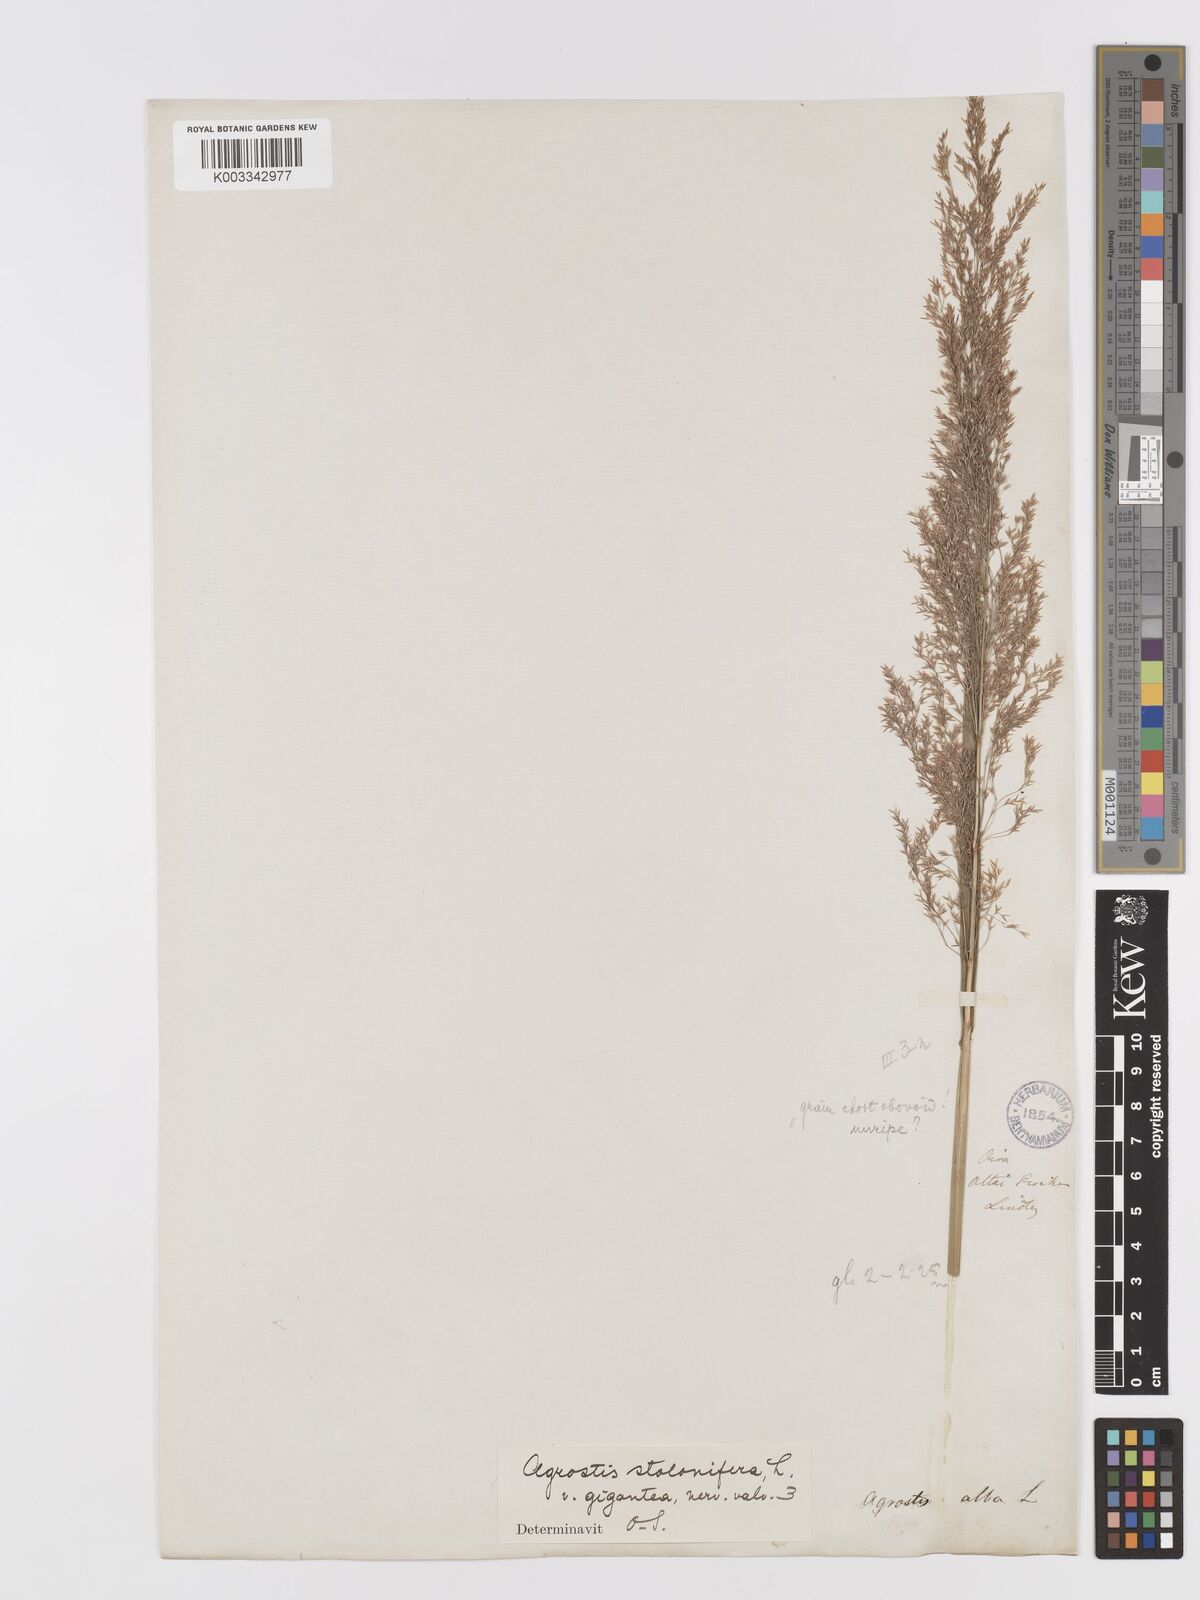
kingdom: Plantae
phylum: Tracheophyta
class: Liliopsida
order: Poales
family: Poaceae
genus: Agrostis
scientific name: Agrostis stolonifera
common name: Creeping bentgrass
